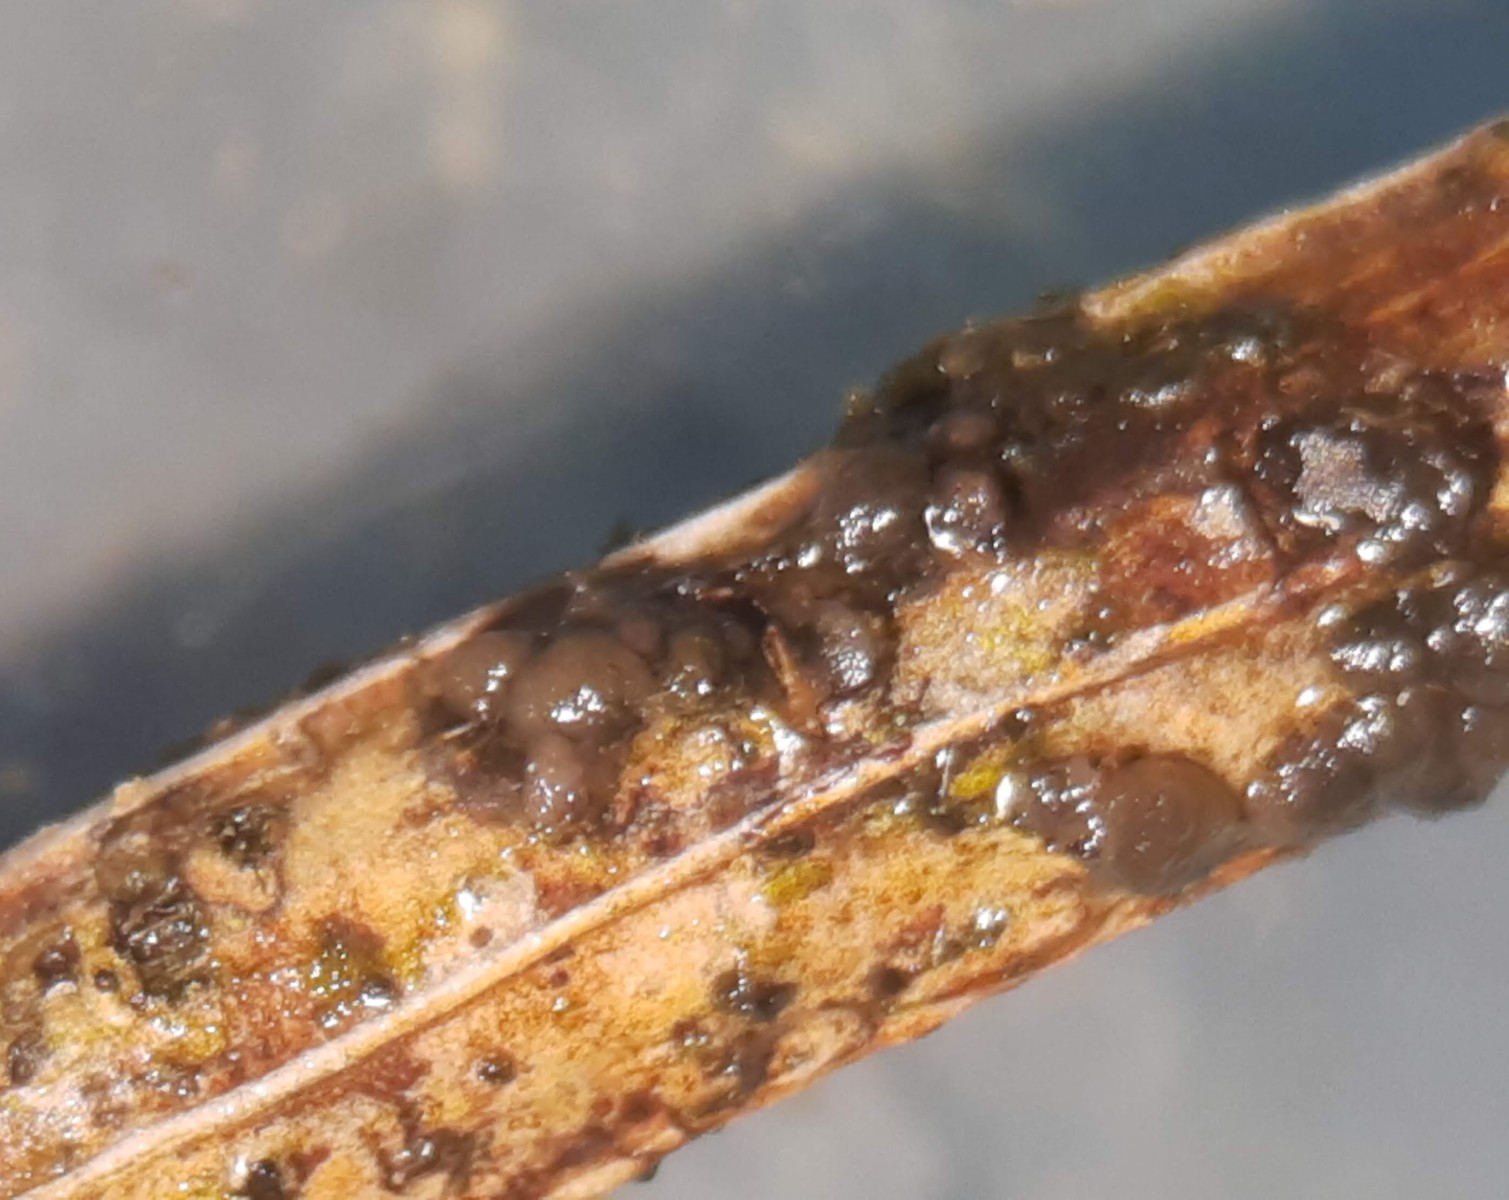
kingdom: Fungi
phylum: Basidiomycota
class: Tremellomycetes
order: Tremellales
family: Tremellaceae
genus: Tremella
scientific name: Tremella exigua
